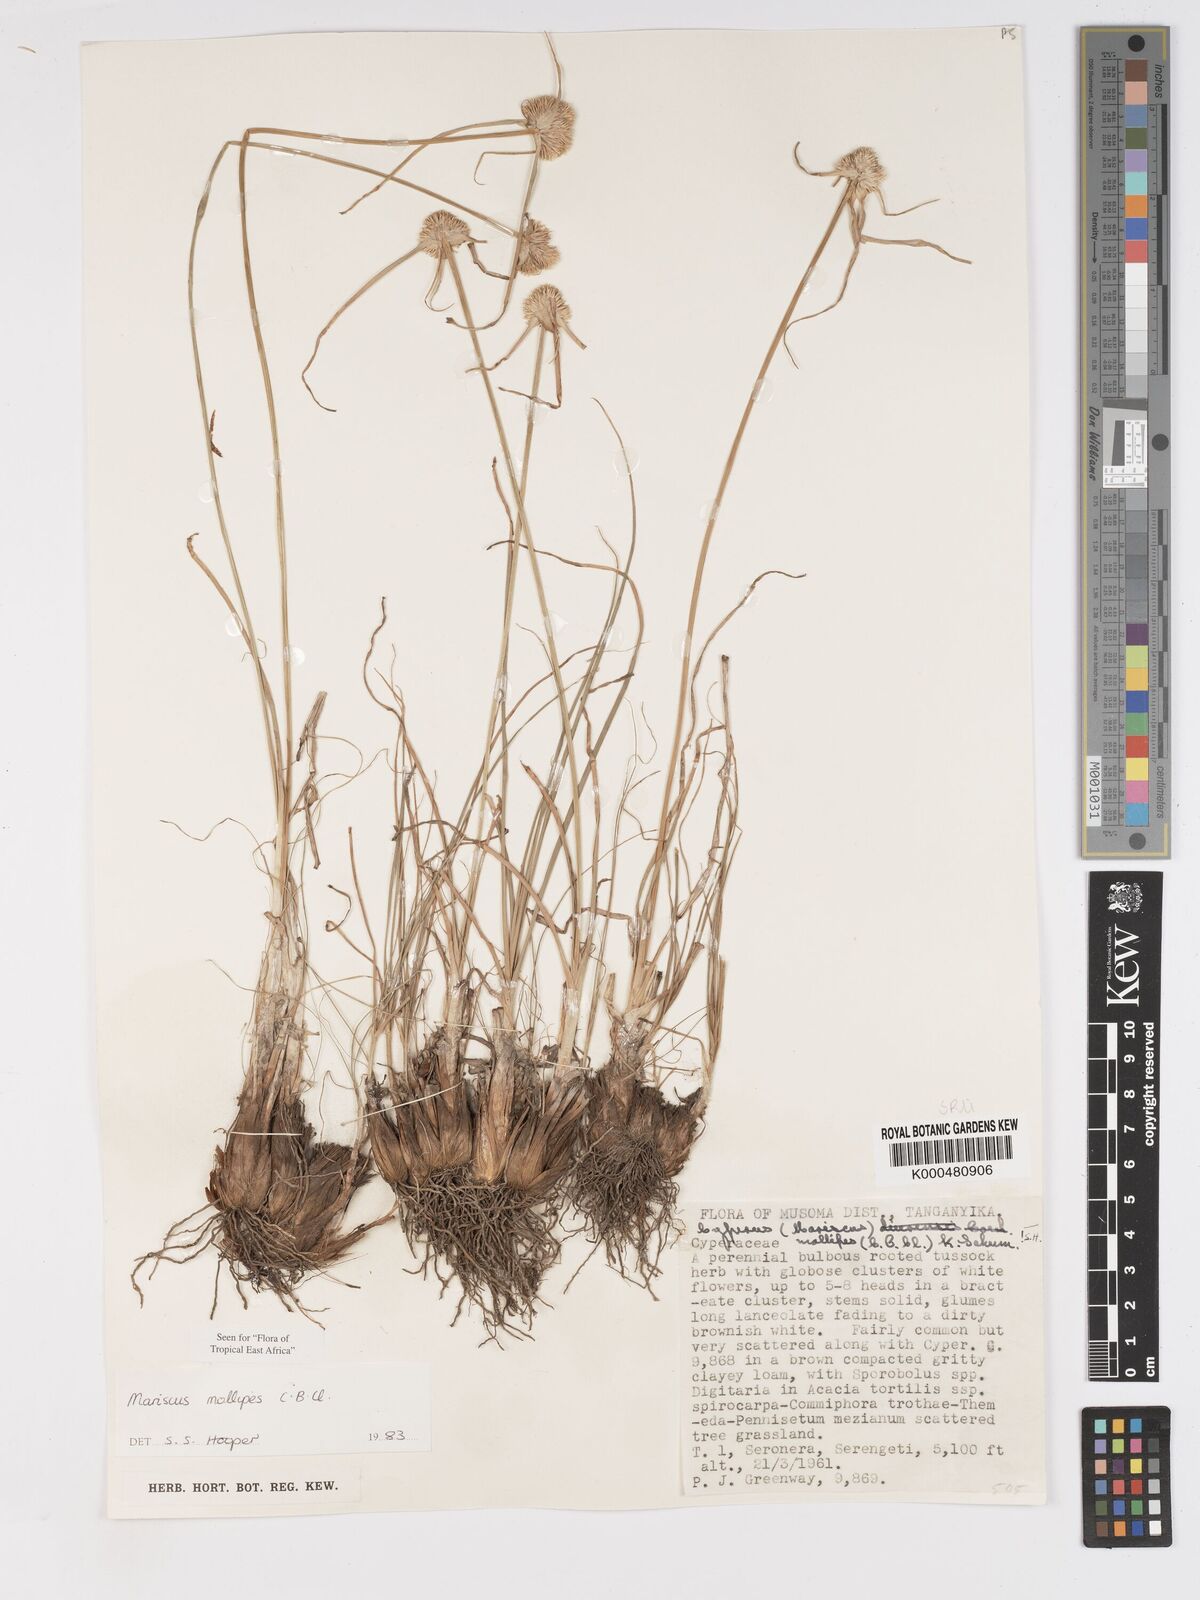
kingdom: Plantae
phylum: Tracheophyta
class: Liliopsida
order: Poales
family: Cyperaceae
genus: Cyperus
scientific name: Cyperus mollipes
